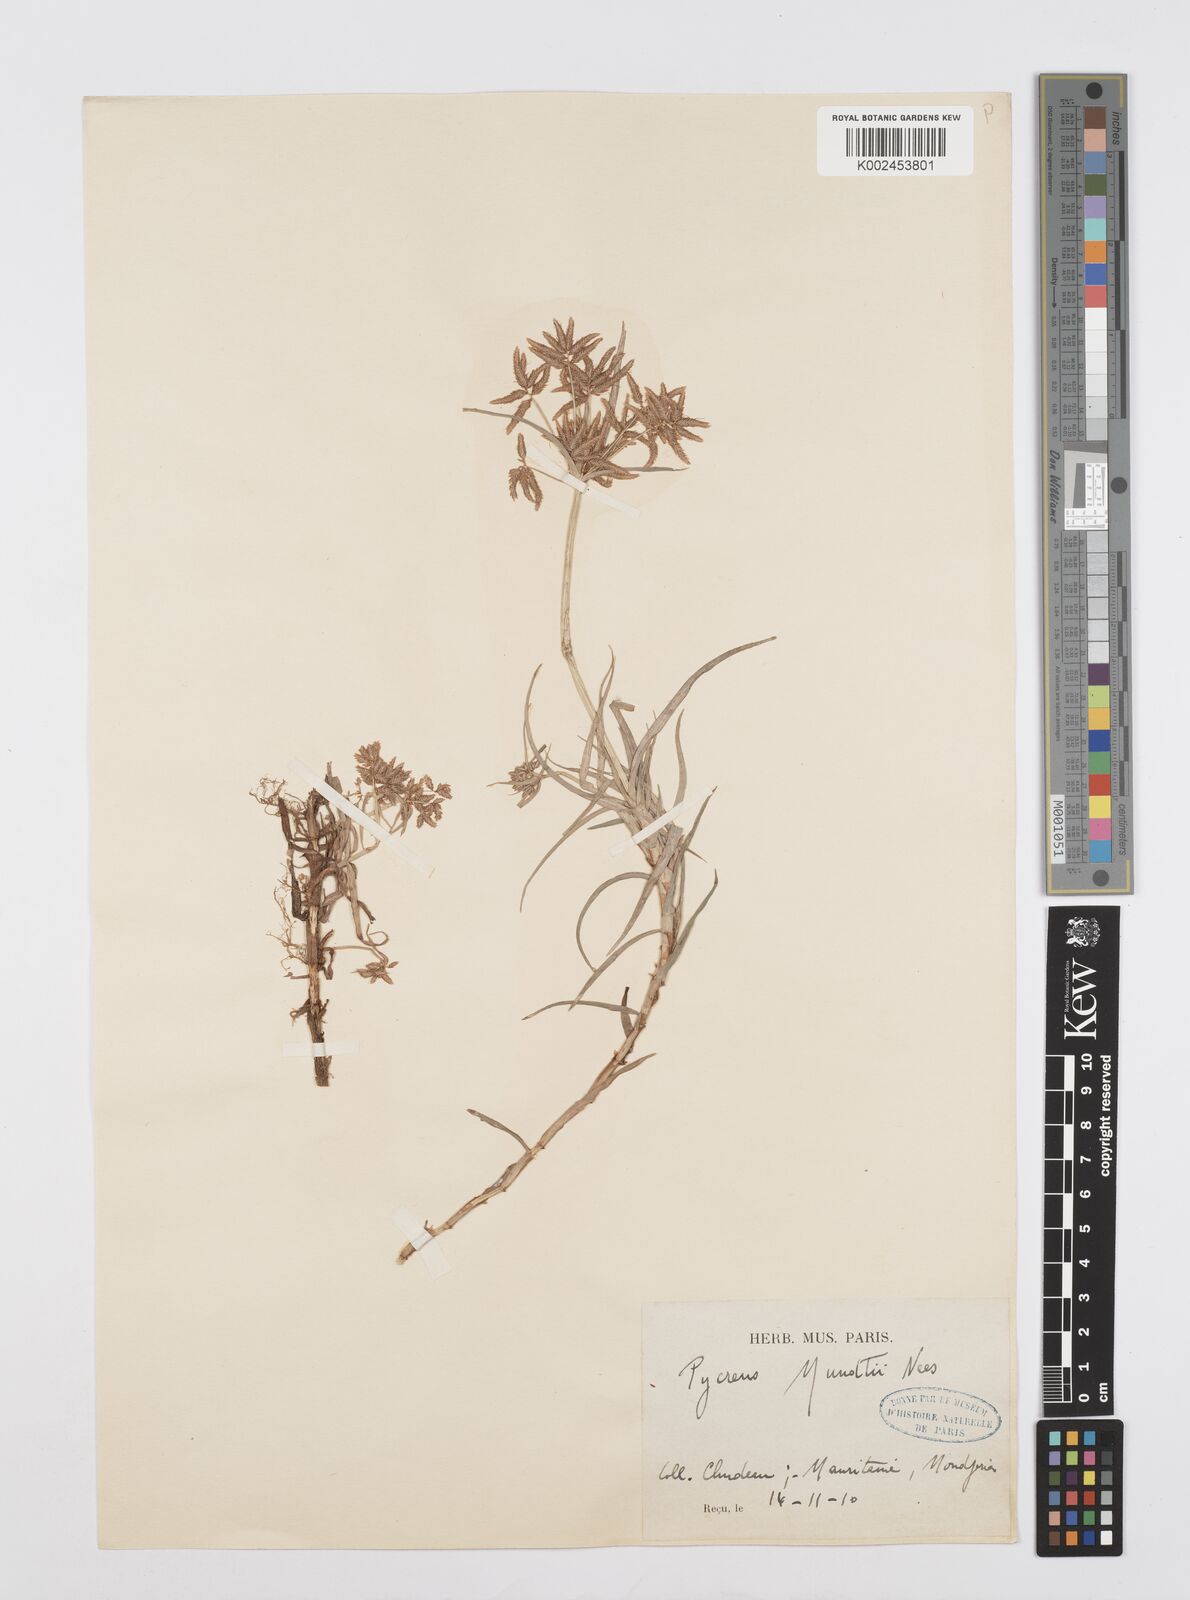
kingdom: Plantae
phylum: Tracheophyta
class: Liliopsida
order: Poales
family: Cyperaceae
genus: Cyperus
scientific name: Cyperus mundii
